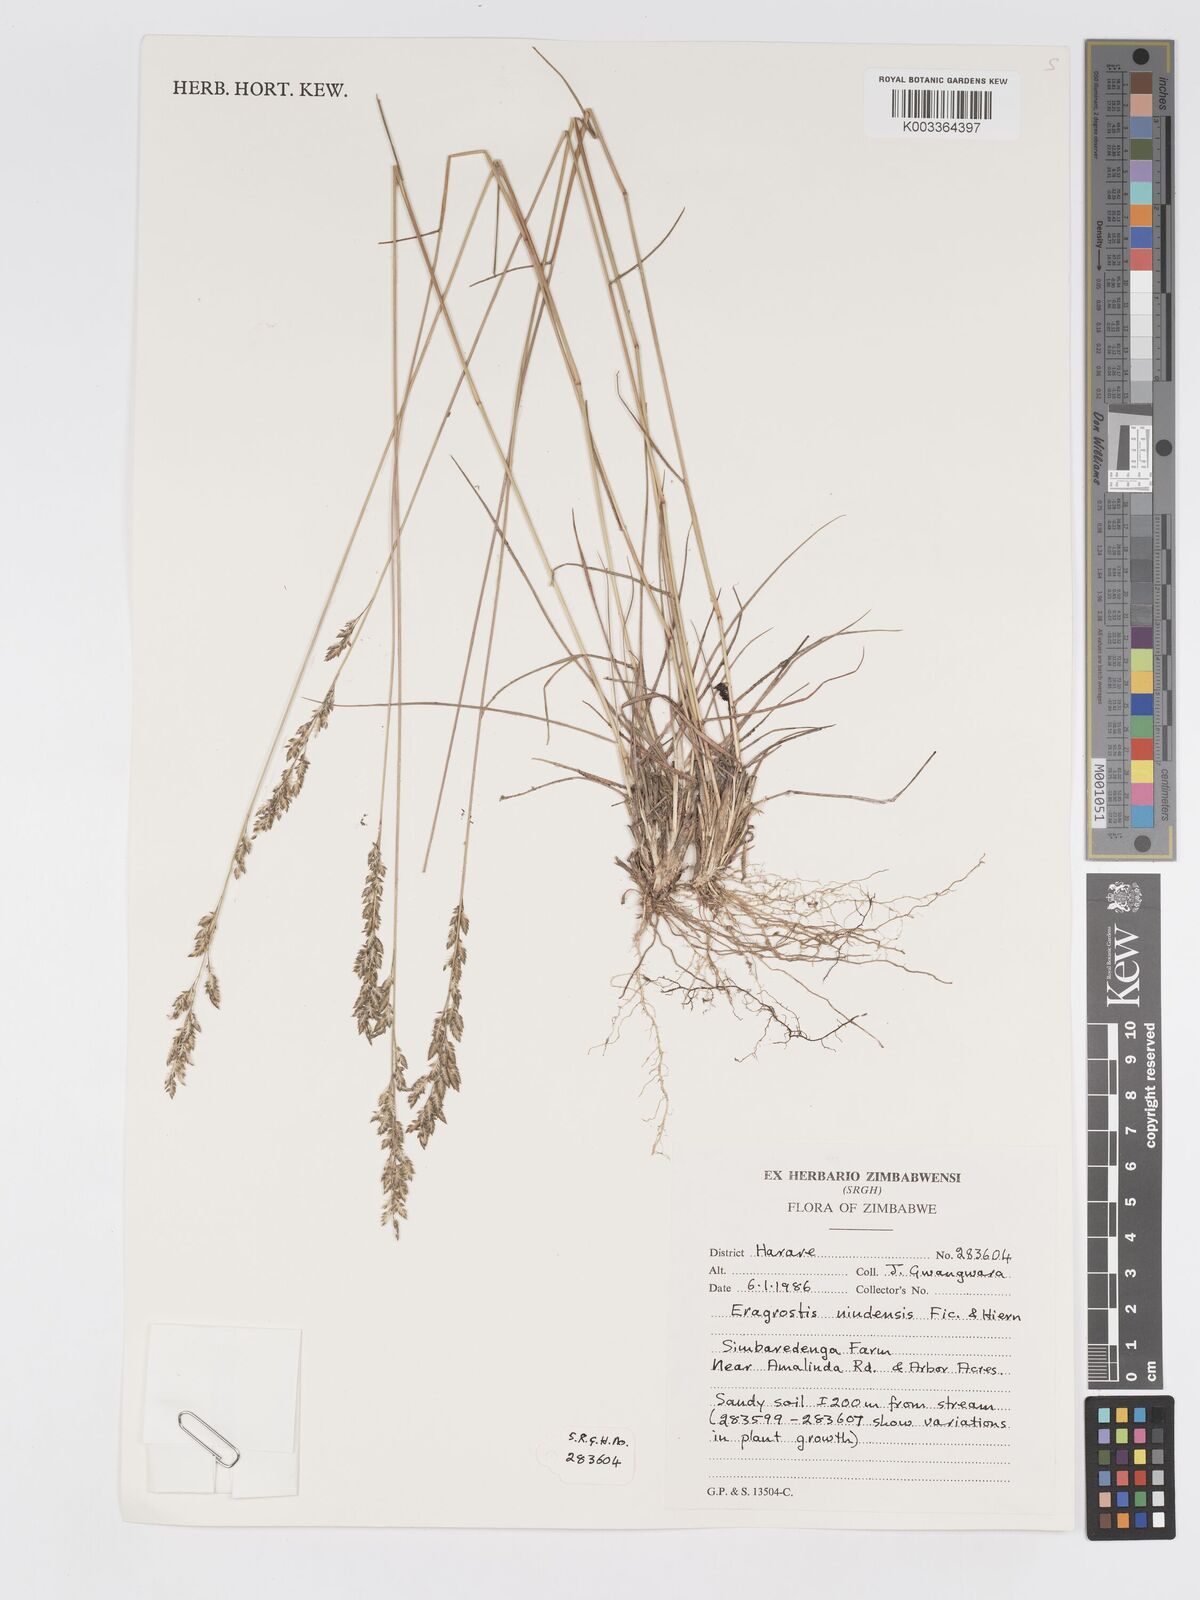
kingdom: Plantae
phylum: Tracheophyta
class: Liliopsida
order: Poales
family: Poaceae
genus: Eragrostis
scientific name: Eragrostis racemosa
